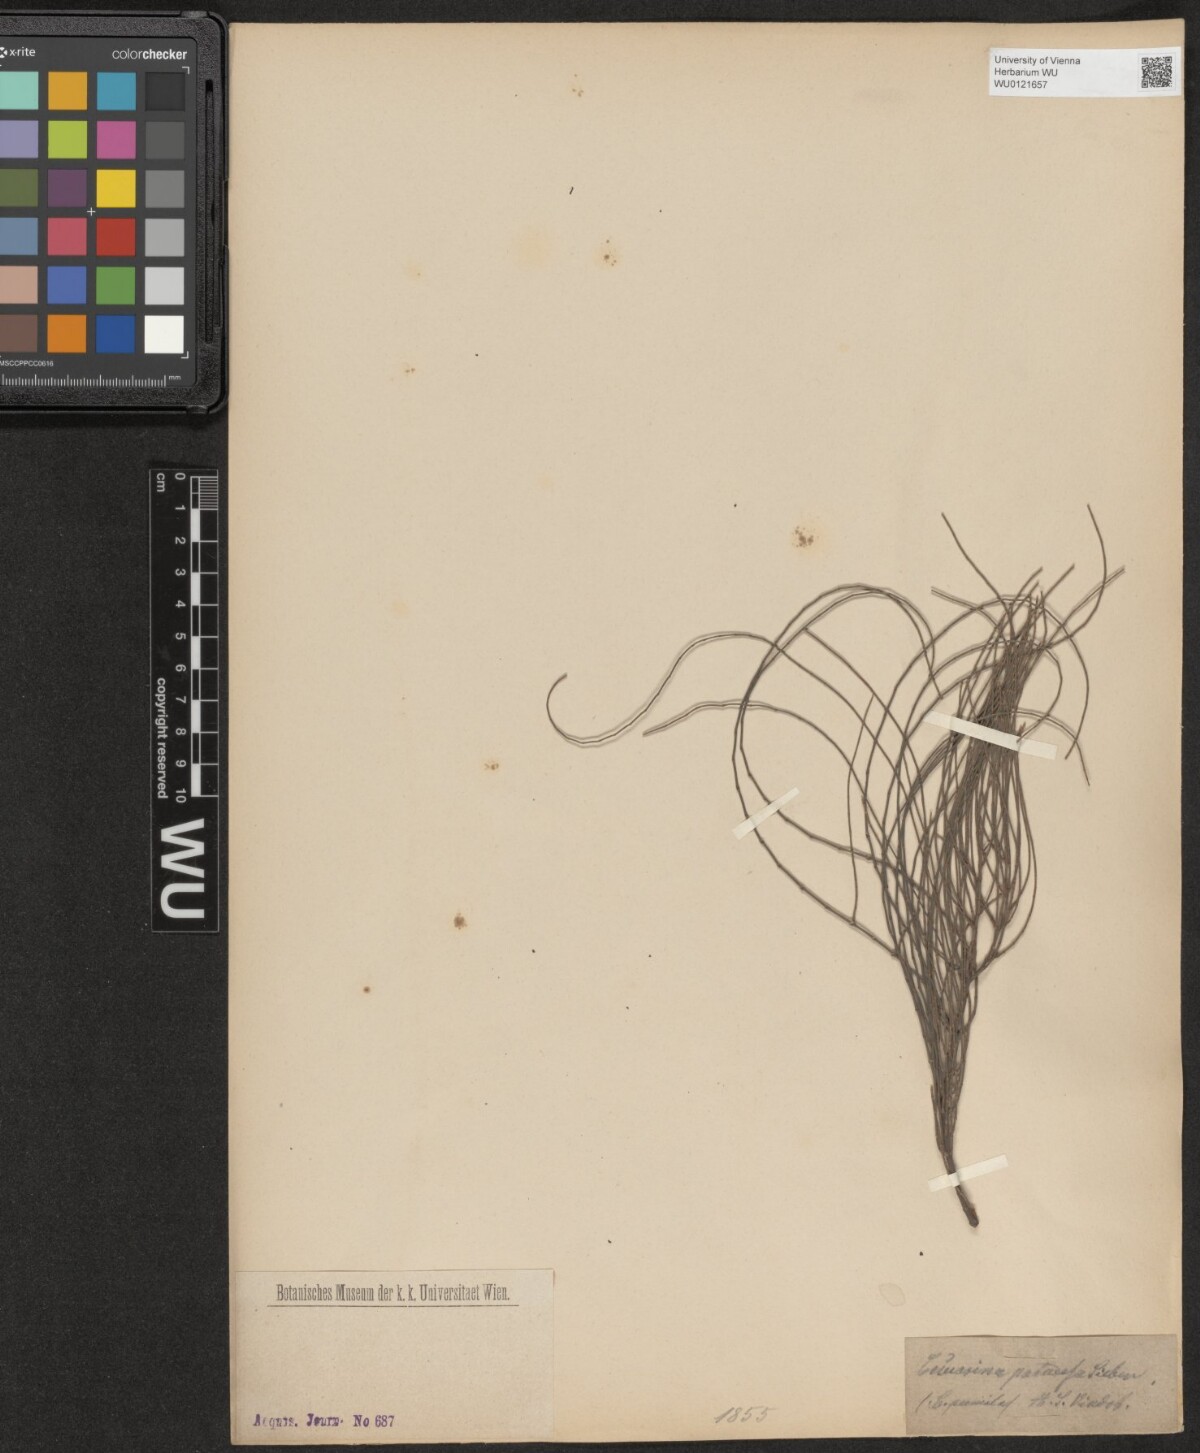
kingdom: Plantae
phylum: Tracheophyta
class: Magnoliopsida
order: Fagales
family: Casuarinaceae
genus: Allocasuarina
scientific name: Allocasuarina paludosa
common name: Scrub she-oak
